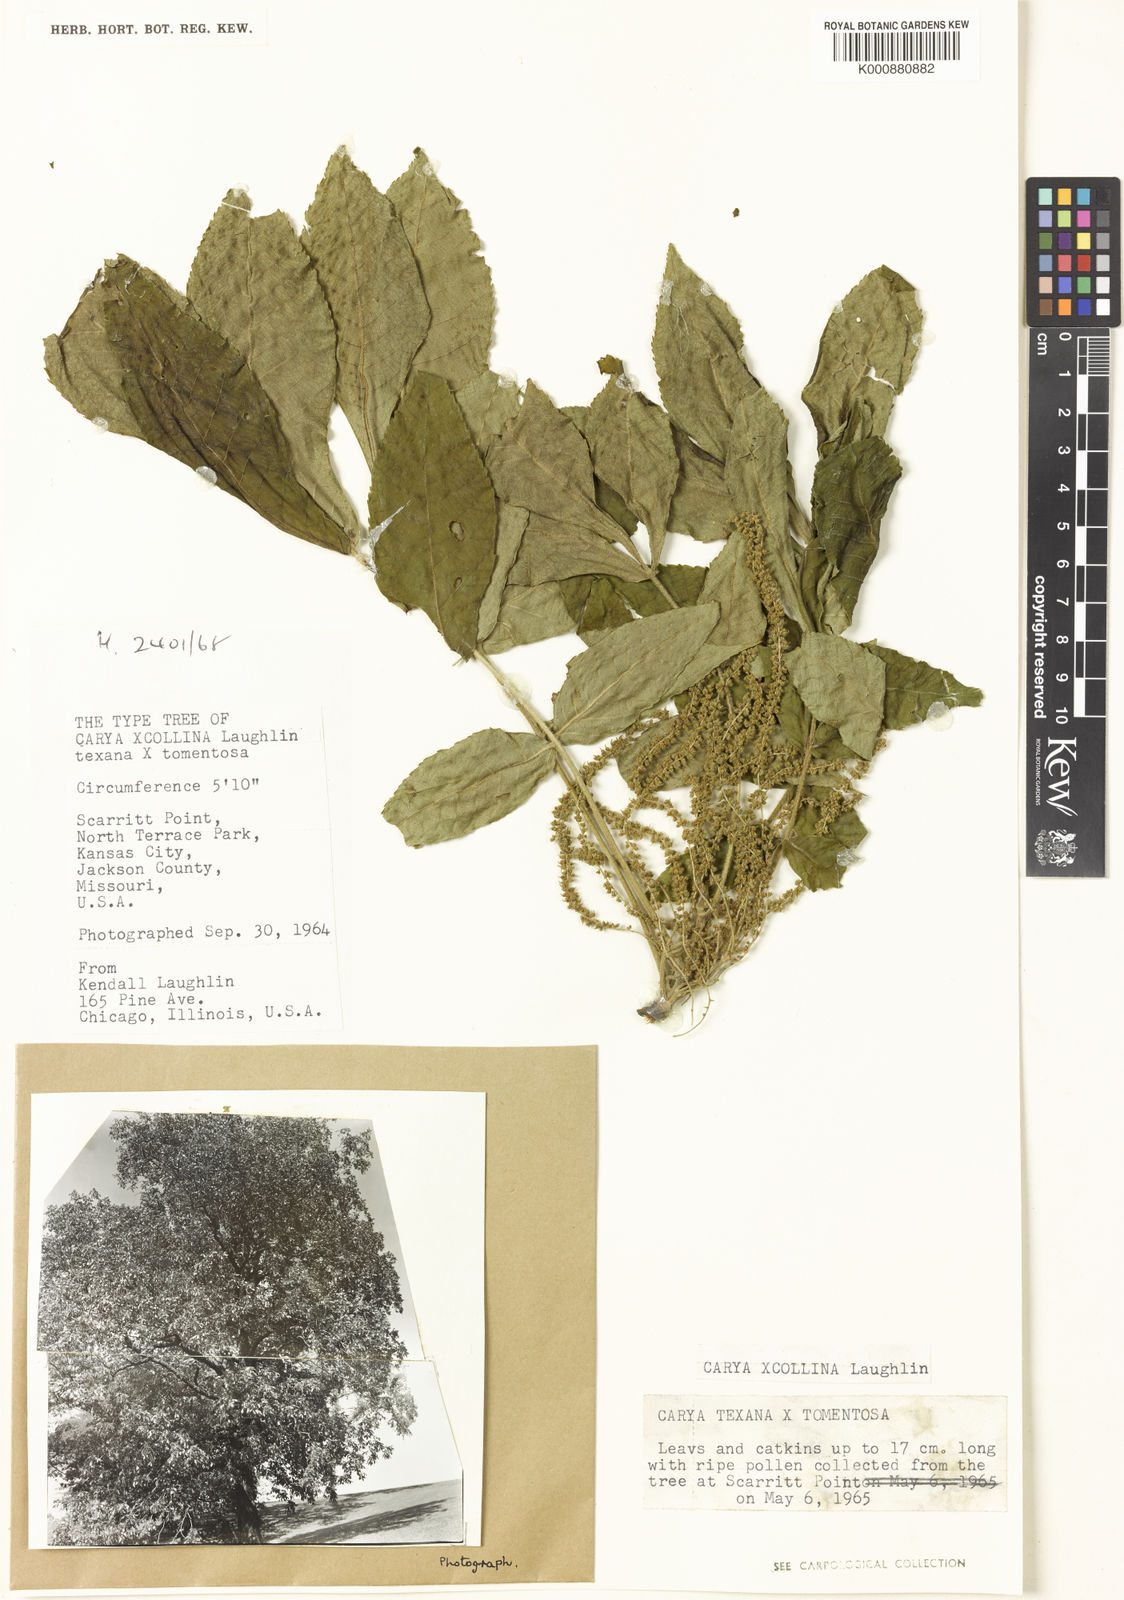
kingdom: Plantae
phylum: Tracheophyta
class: Magnoliopsida
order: Fagales
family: Juglandaceae
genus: Carya
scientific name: Carya collina
